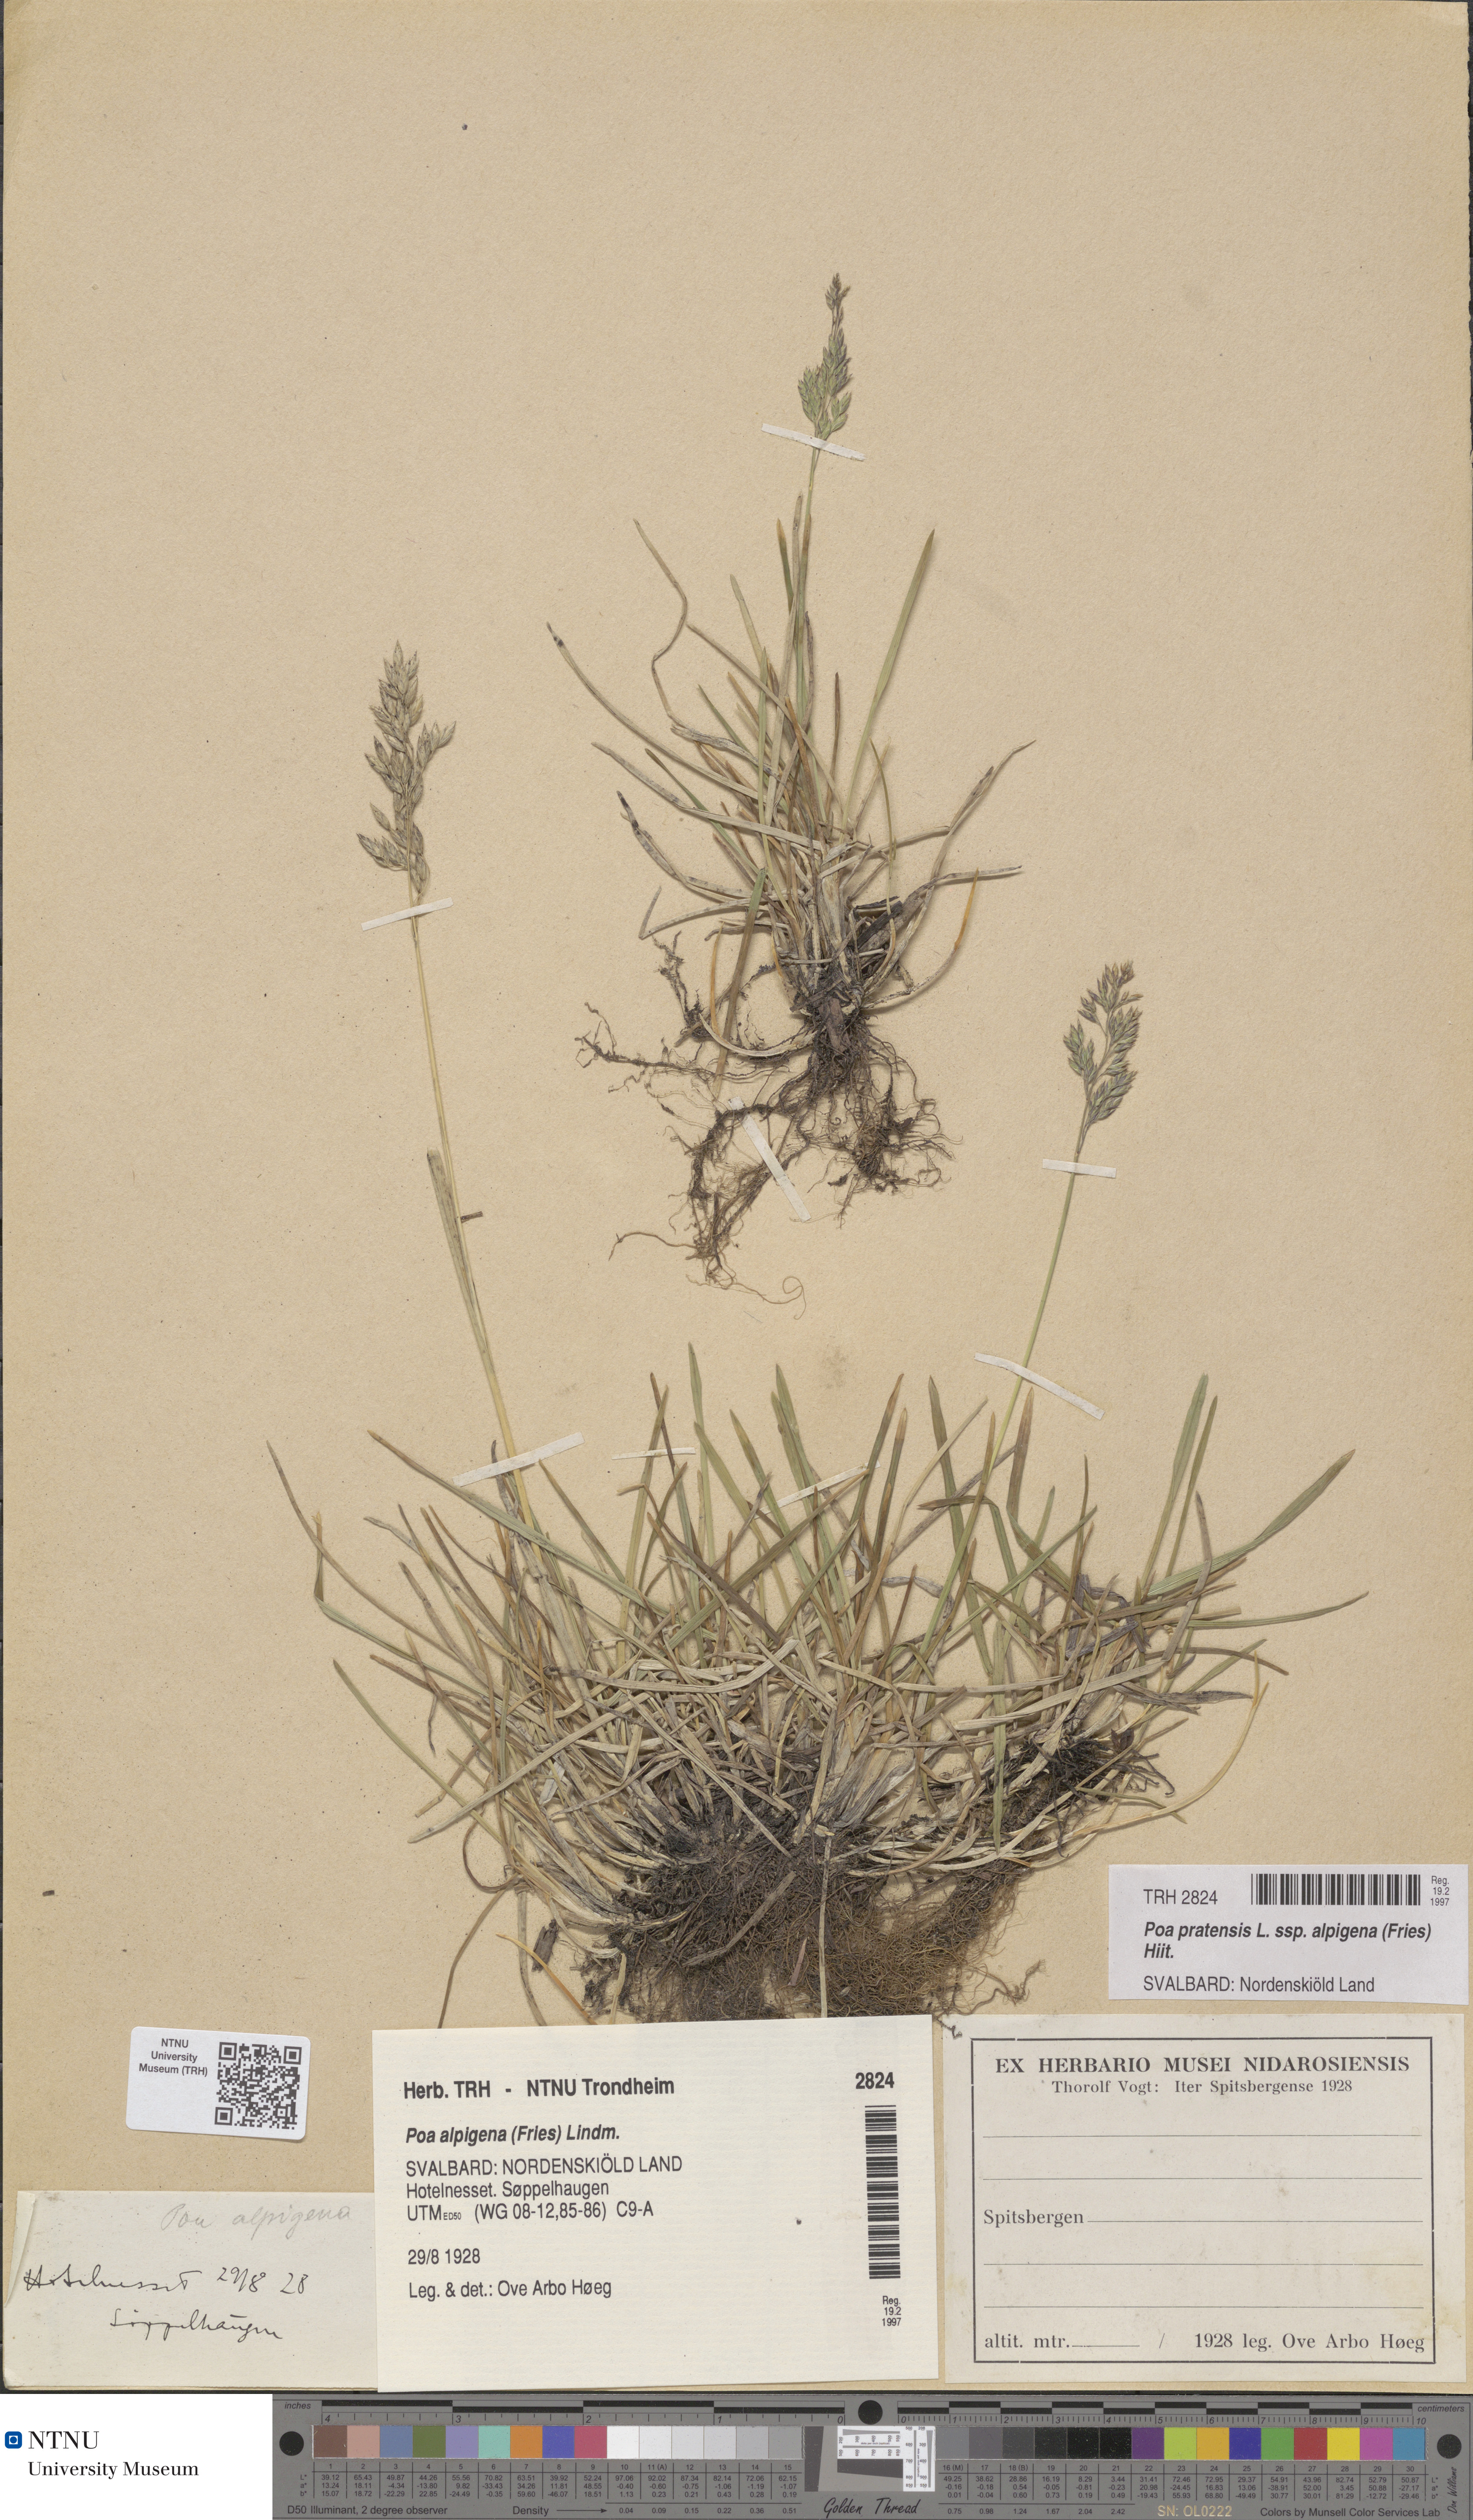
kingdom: Plantae
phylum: Tracheophyta
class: Liliopsida
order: Poales
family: Poaceae
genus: Poa
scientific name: Poa alpigena
